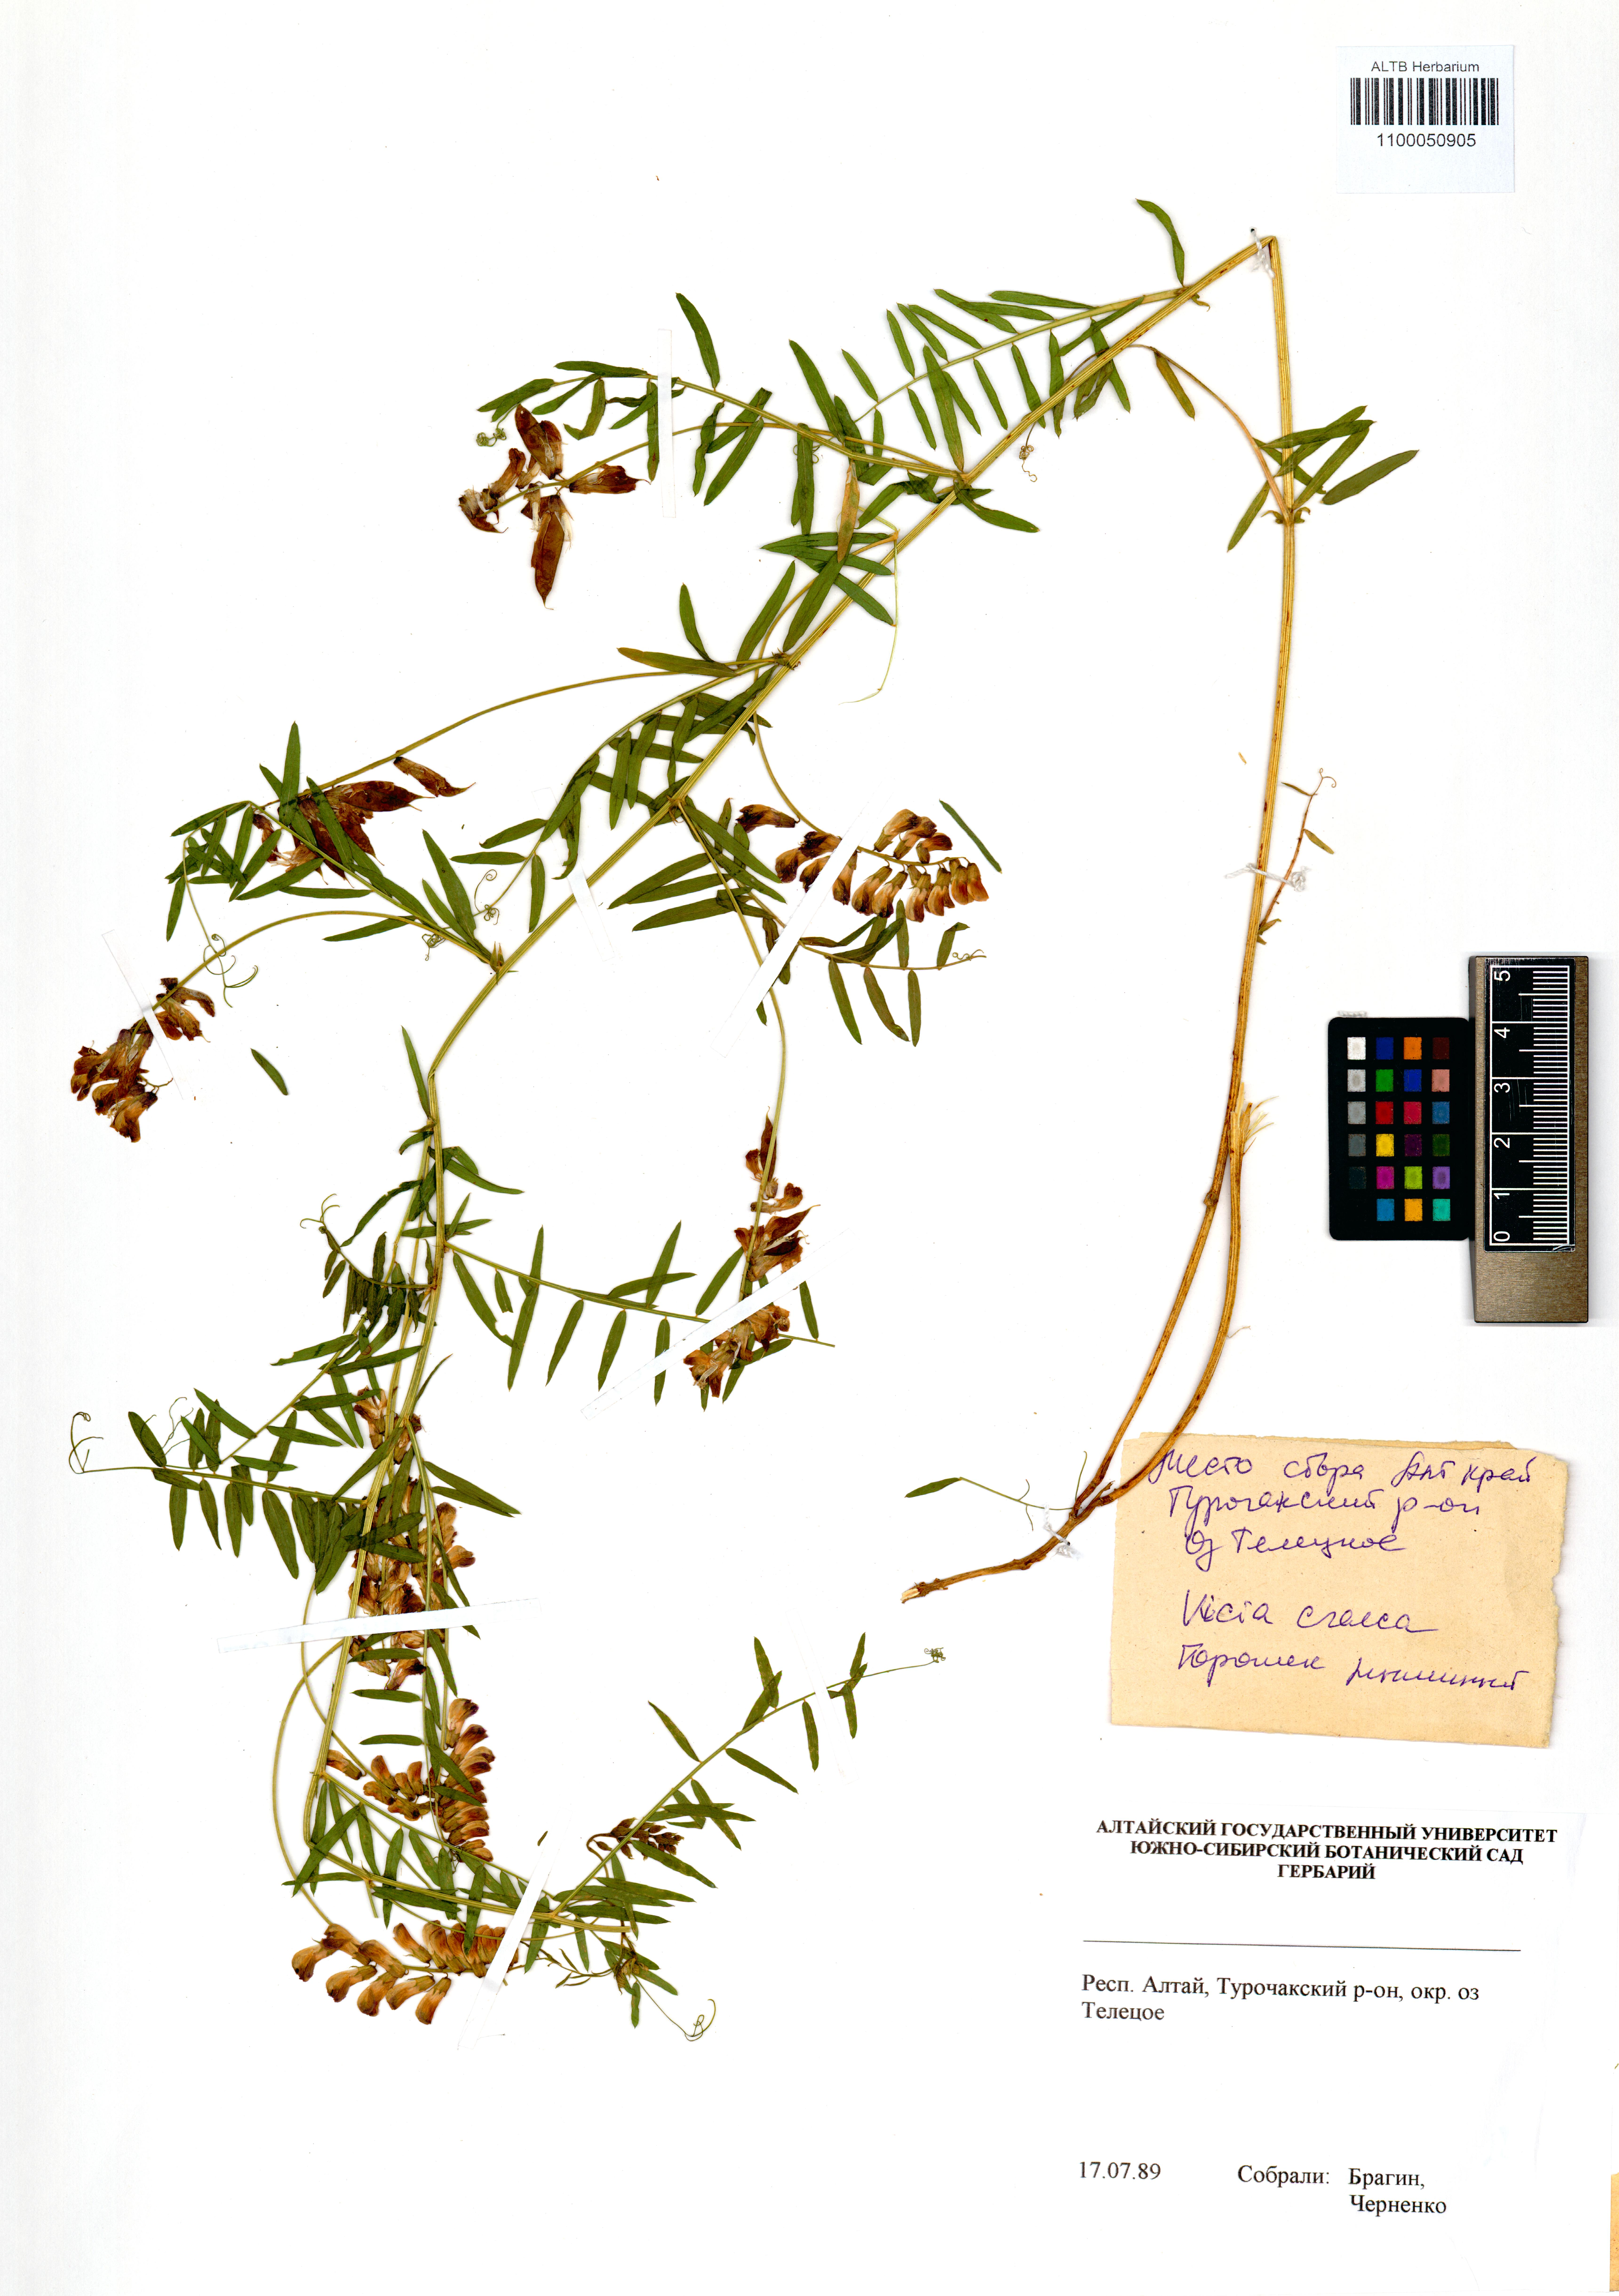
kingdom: Plantae
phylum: Tracheophyta
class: Magnoliopsida
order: Fabales
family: Fabaceae
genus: Vicia
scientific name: Vicia cracca
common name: Bird vetch
